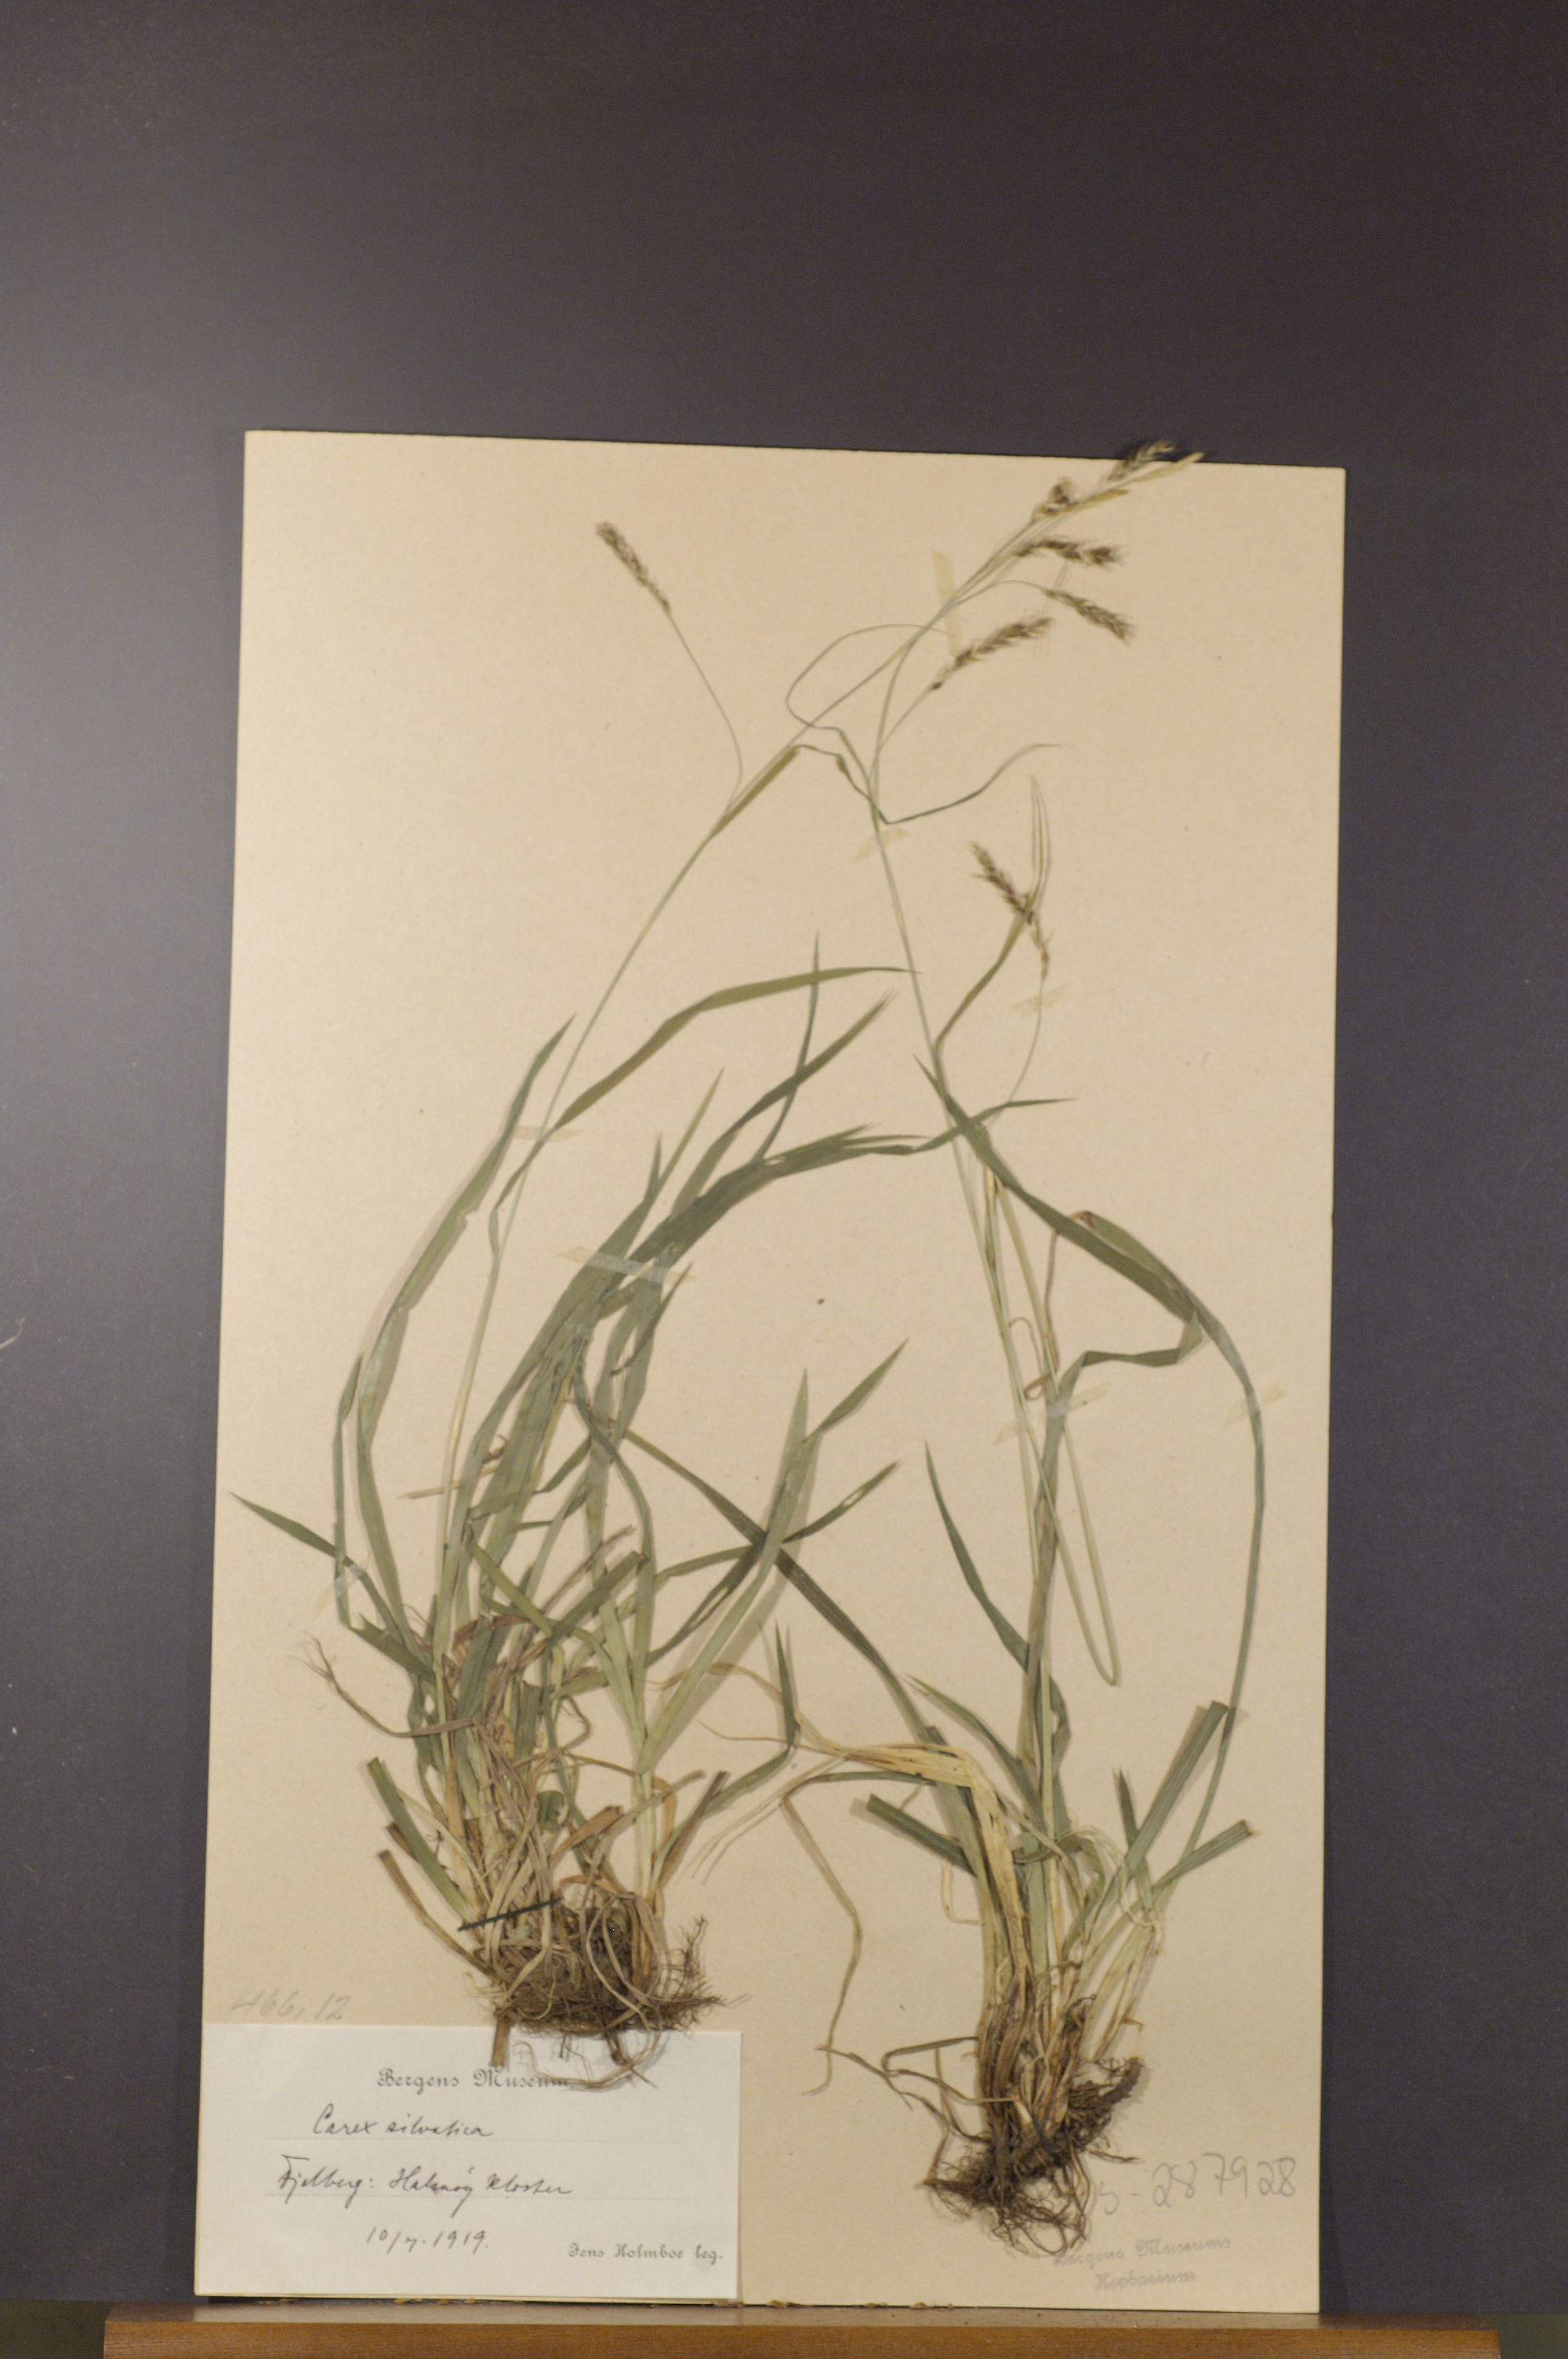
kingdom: Plantae
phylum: Tracheophyta
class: Liliopsida
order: Poales
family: Cyperaceae
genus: Carex
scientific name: Carex sylvatica
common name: Wood-sedge
